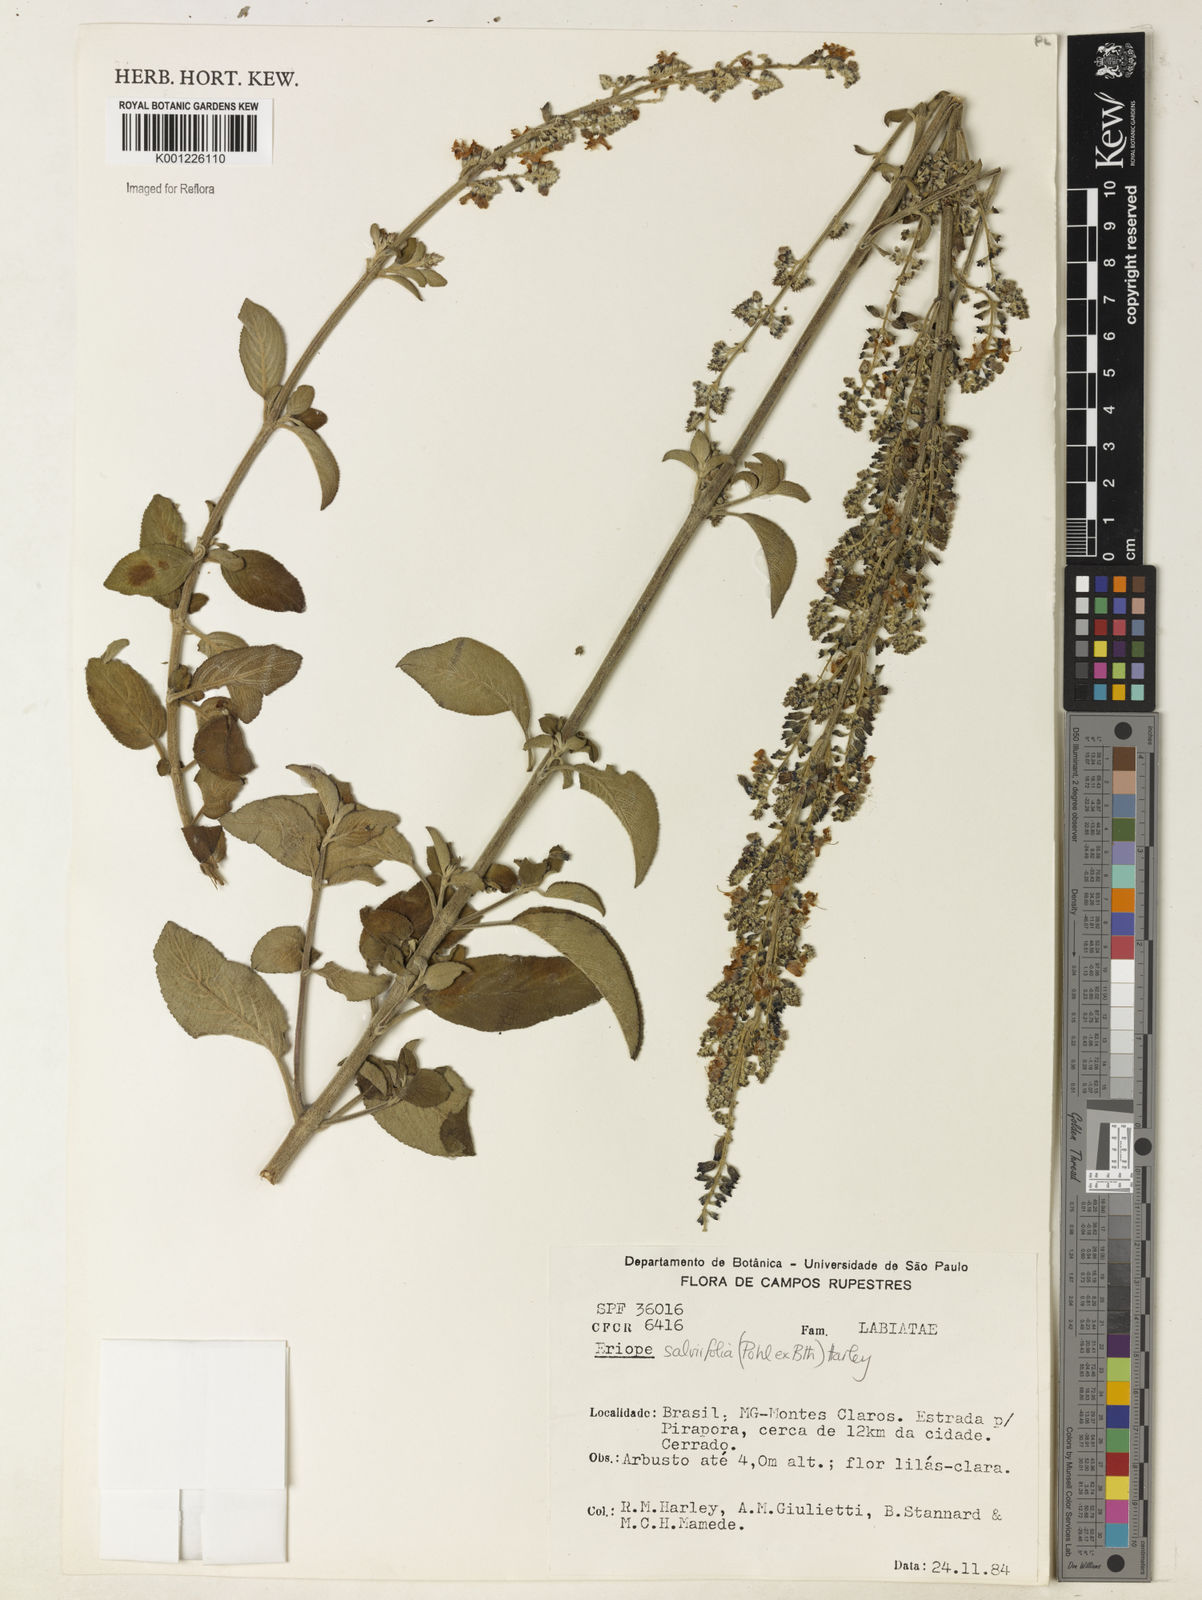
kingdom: Plantae
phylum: Tracheophyta
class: Magnoliopsida
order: Lamiales
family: Lamiaceae
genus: Eriope
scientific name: Eriope salviifolia
